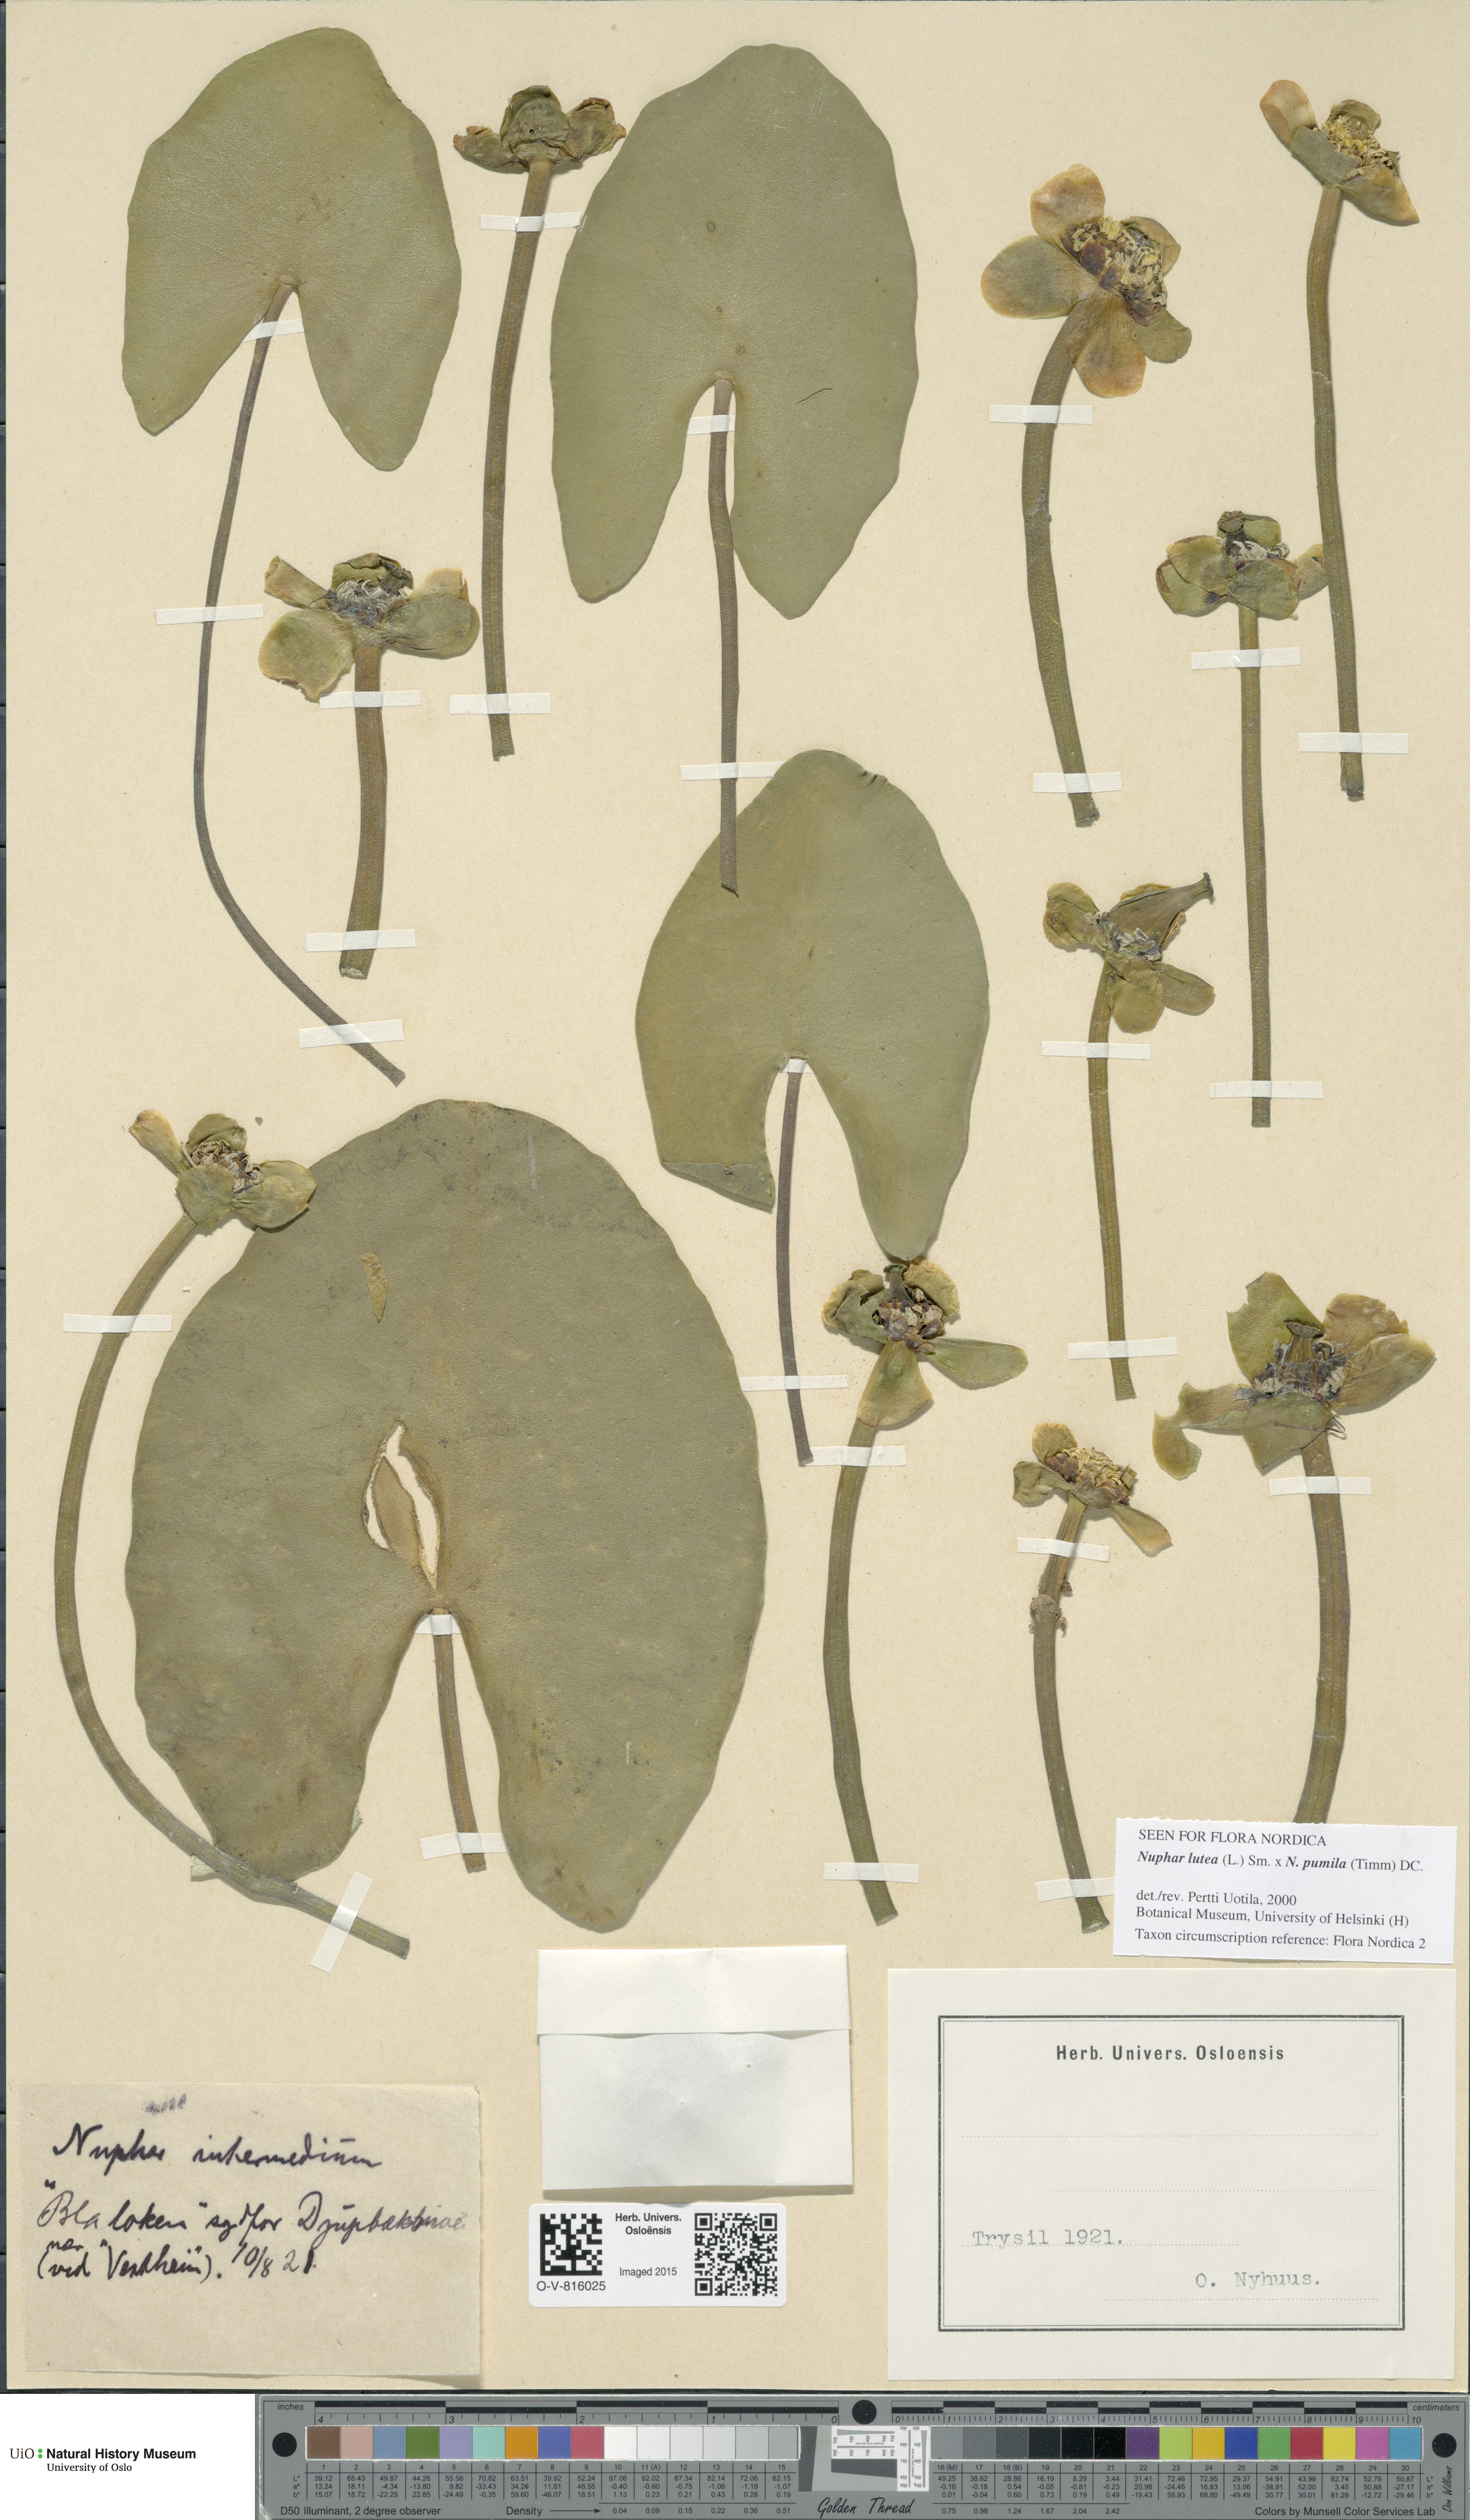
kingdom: Plantae
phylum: Tracheophyta
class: Magnoliopsida
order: Nymphaeales
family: Nymphaeaceae
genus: Nuphar
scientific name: Nuphar
